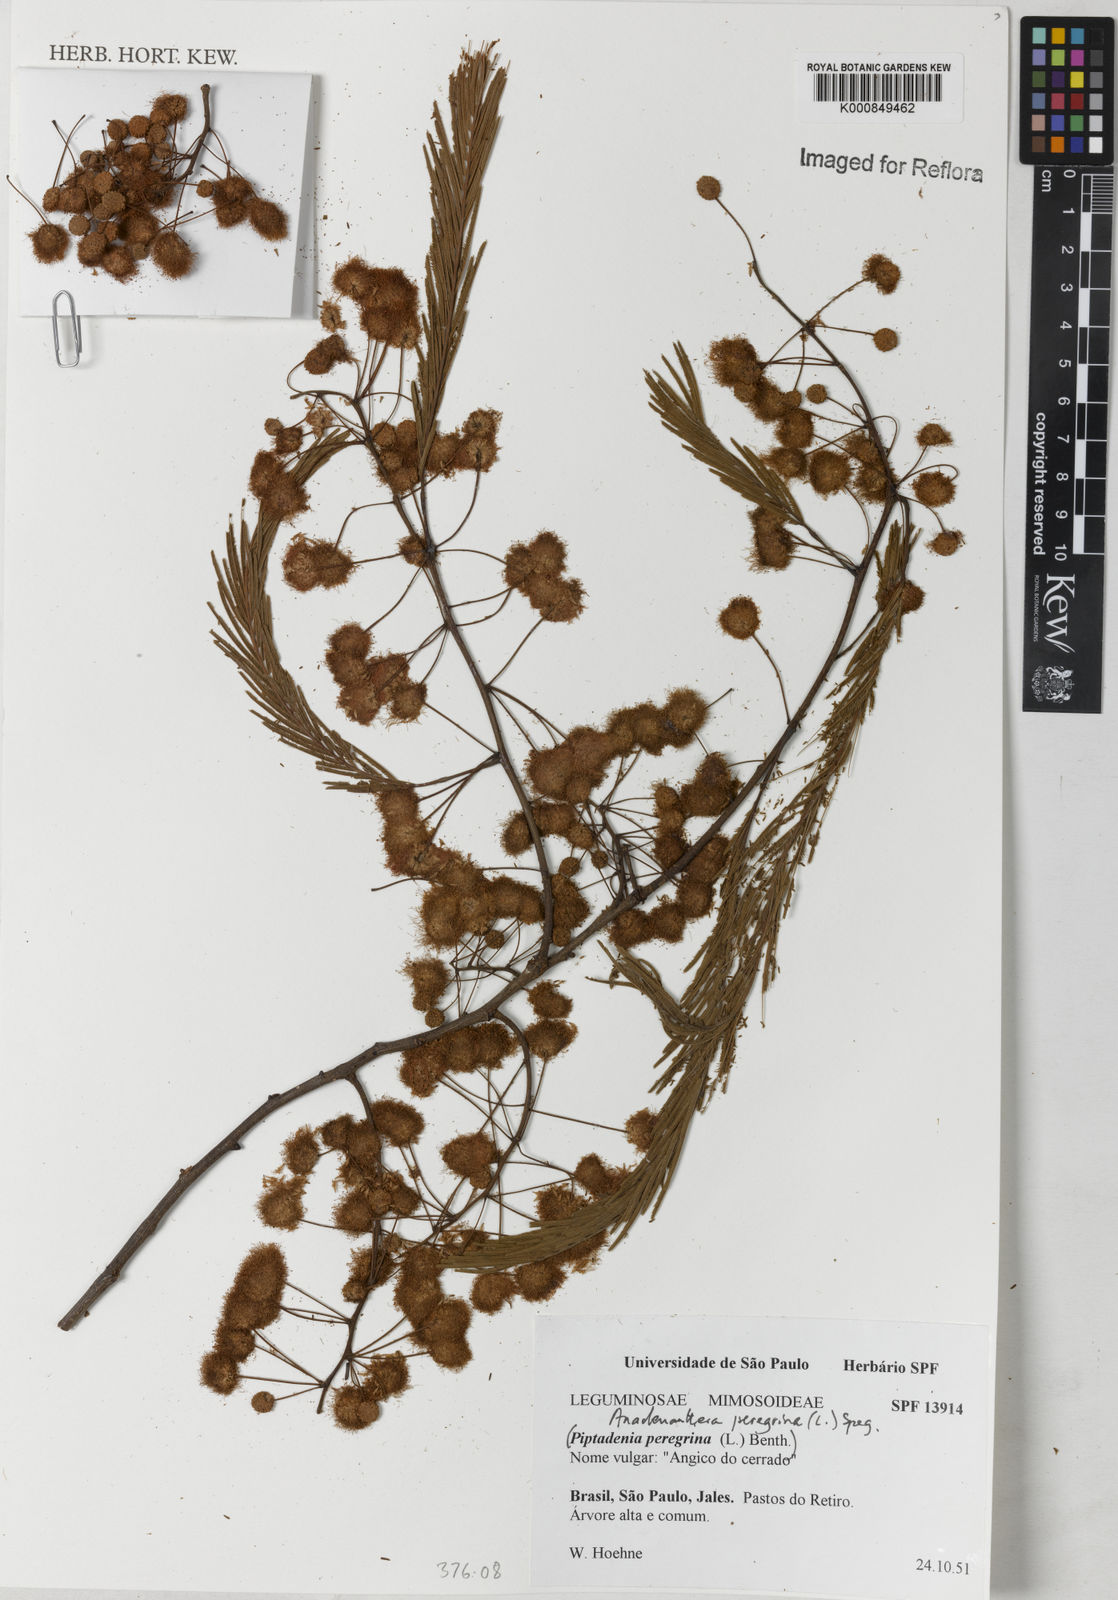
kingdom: Plantae
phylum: Tracheophyta
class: Magnoliopsida
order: Fabales
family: Fabaceae
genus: Anadenanthera
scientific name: Anadenanthera peregrina
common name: Cohoba
